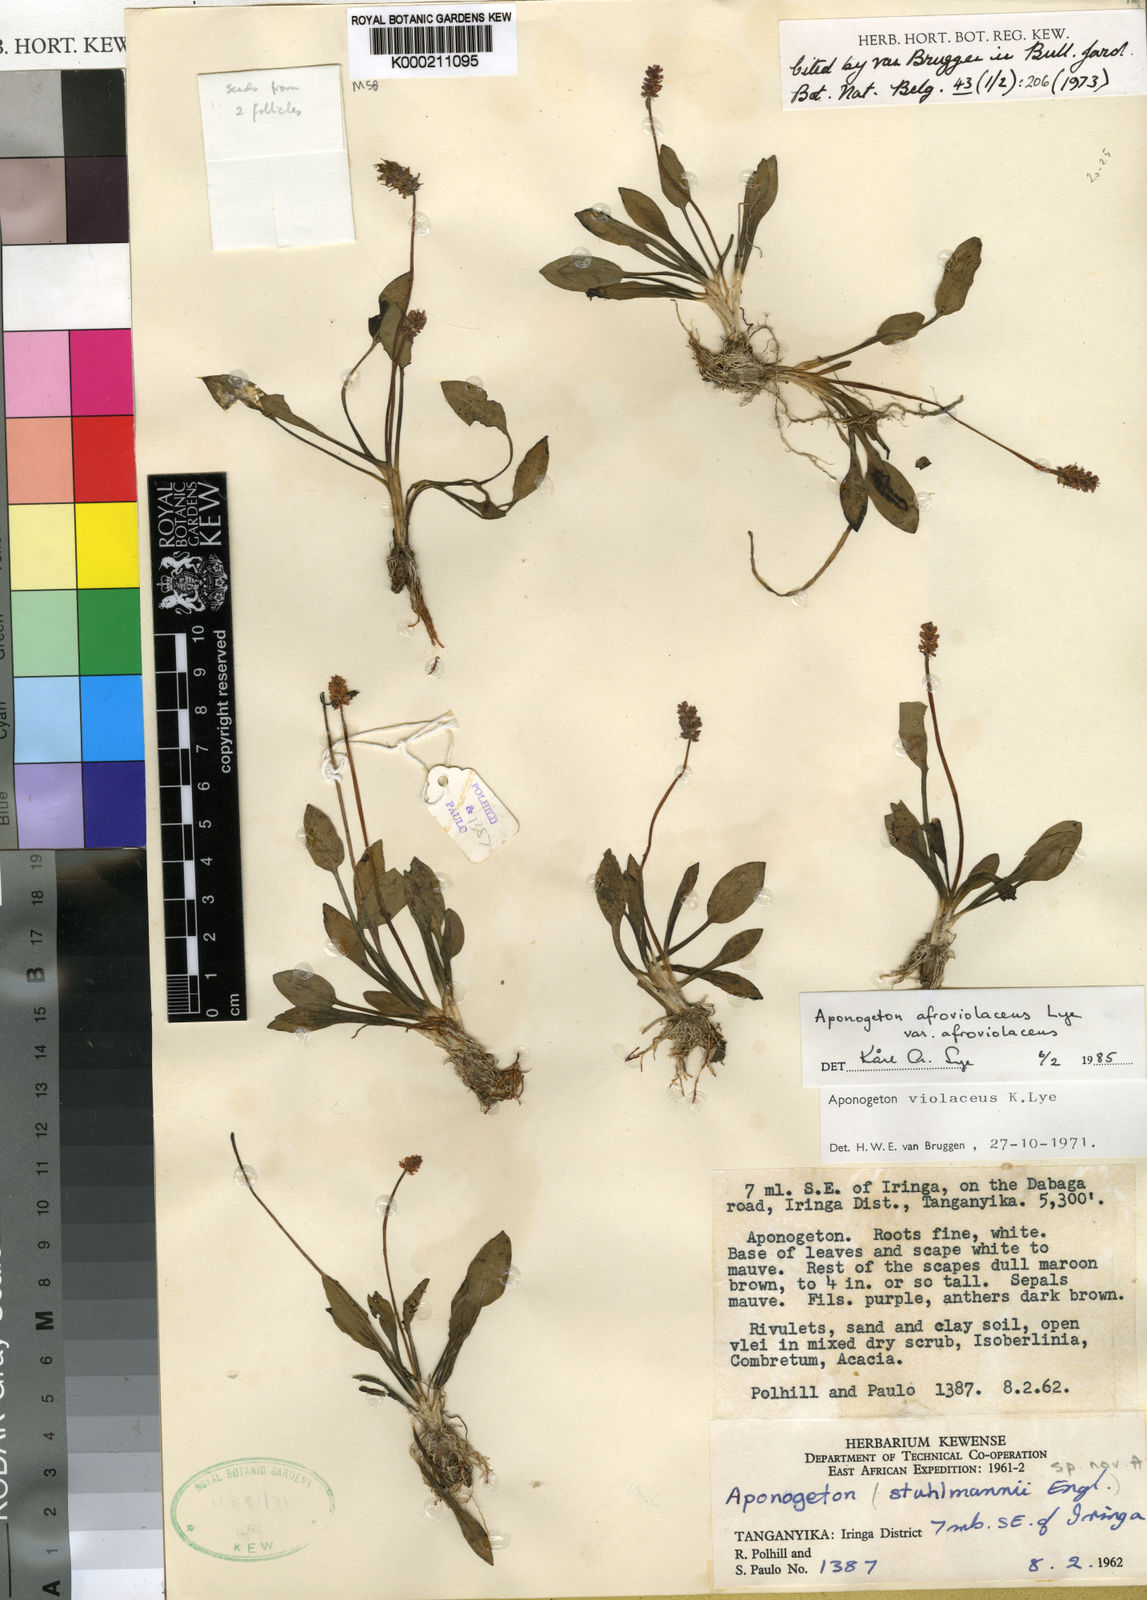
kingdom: Plantae
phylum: Tracheophyta
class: Liliopsida
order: Alismatales
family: Aponogetonaceae
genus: Aponogeton
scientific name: Aponogeton afroviolaceus
